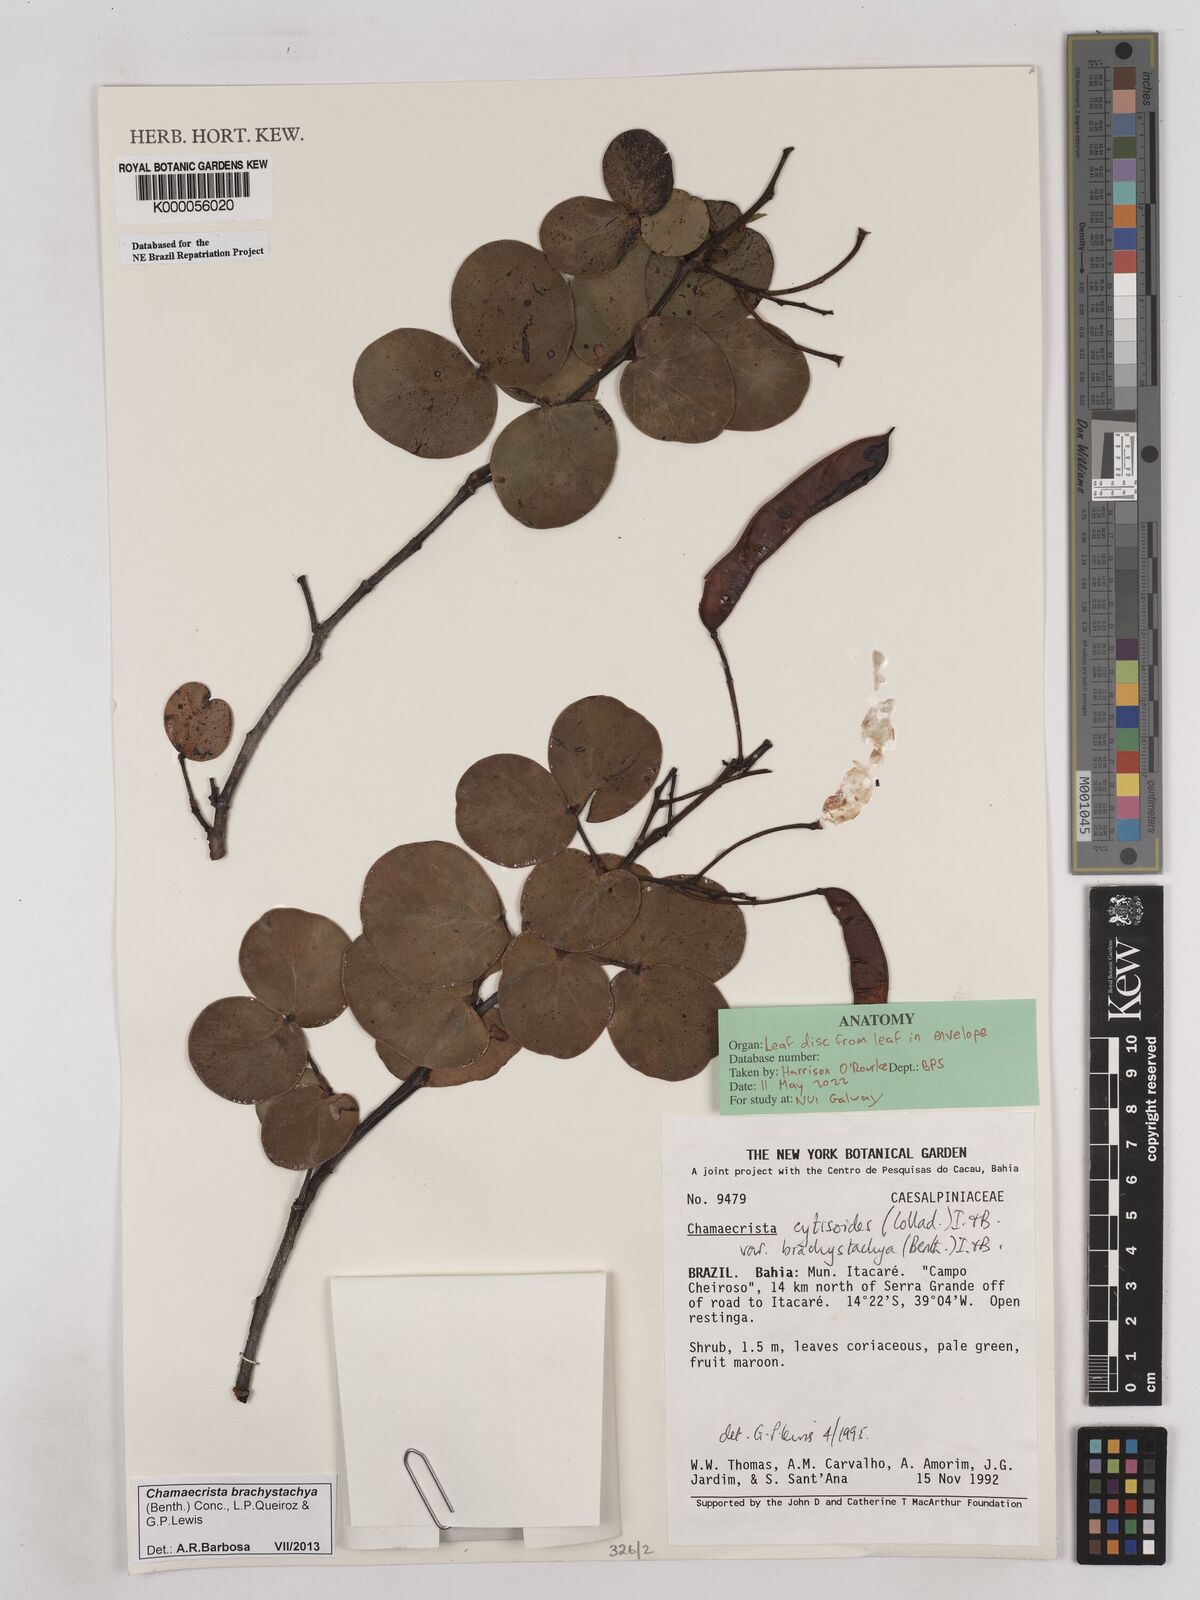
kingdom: Plantae
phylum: Tracheophyta
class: Magnoliopsida
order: Fabales
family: Fabaceae
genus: Chamaecrista
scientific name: Chamaecrista cytisoides
